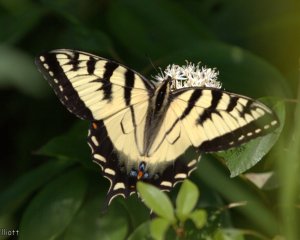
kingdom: Animalia
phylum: Arthropoda
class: Insecta
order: Lepidoptera
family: Papilionidae
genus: Pterourus
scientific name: Pterourus
